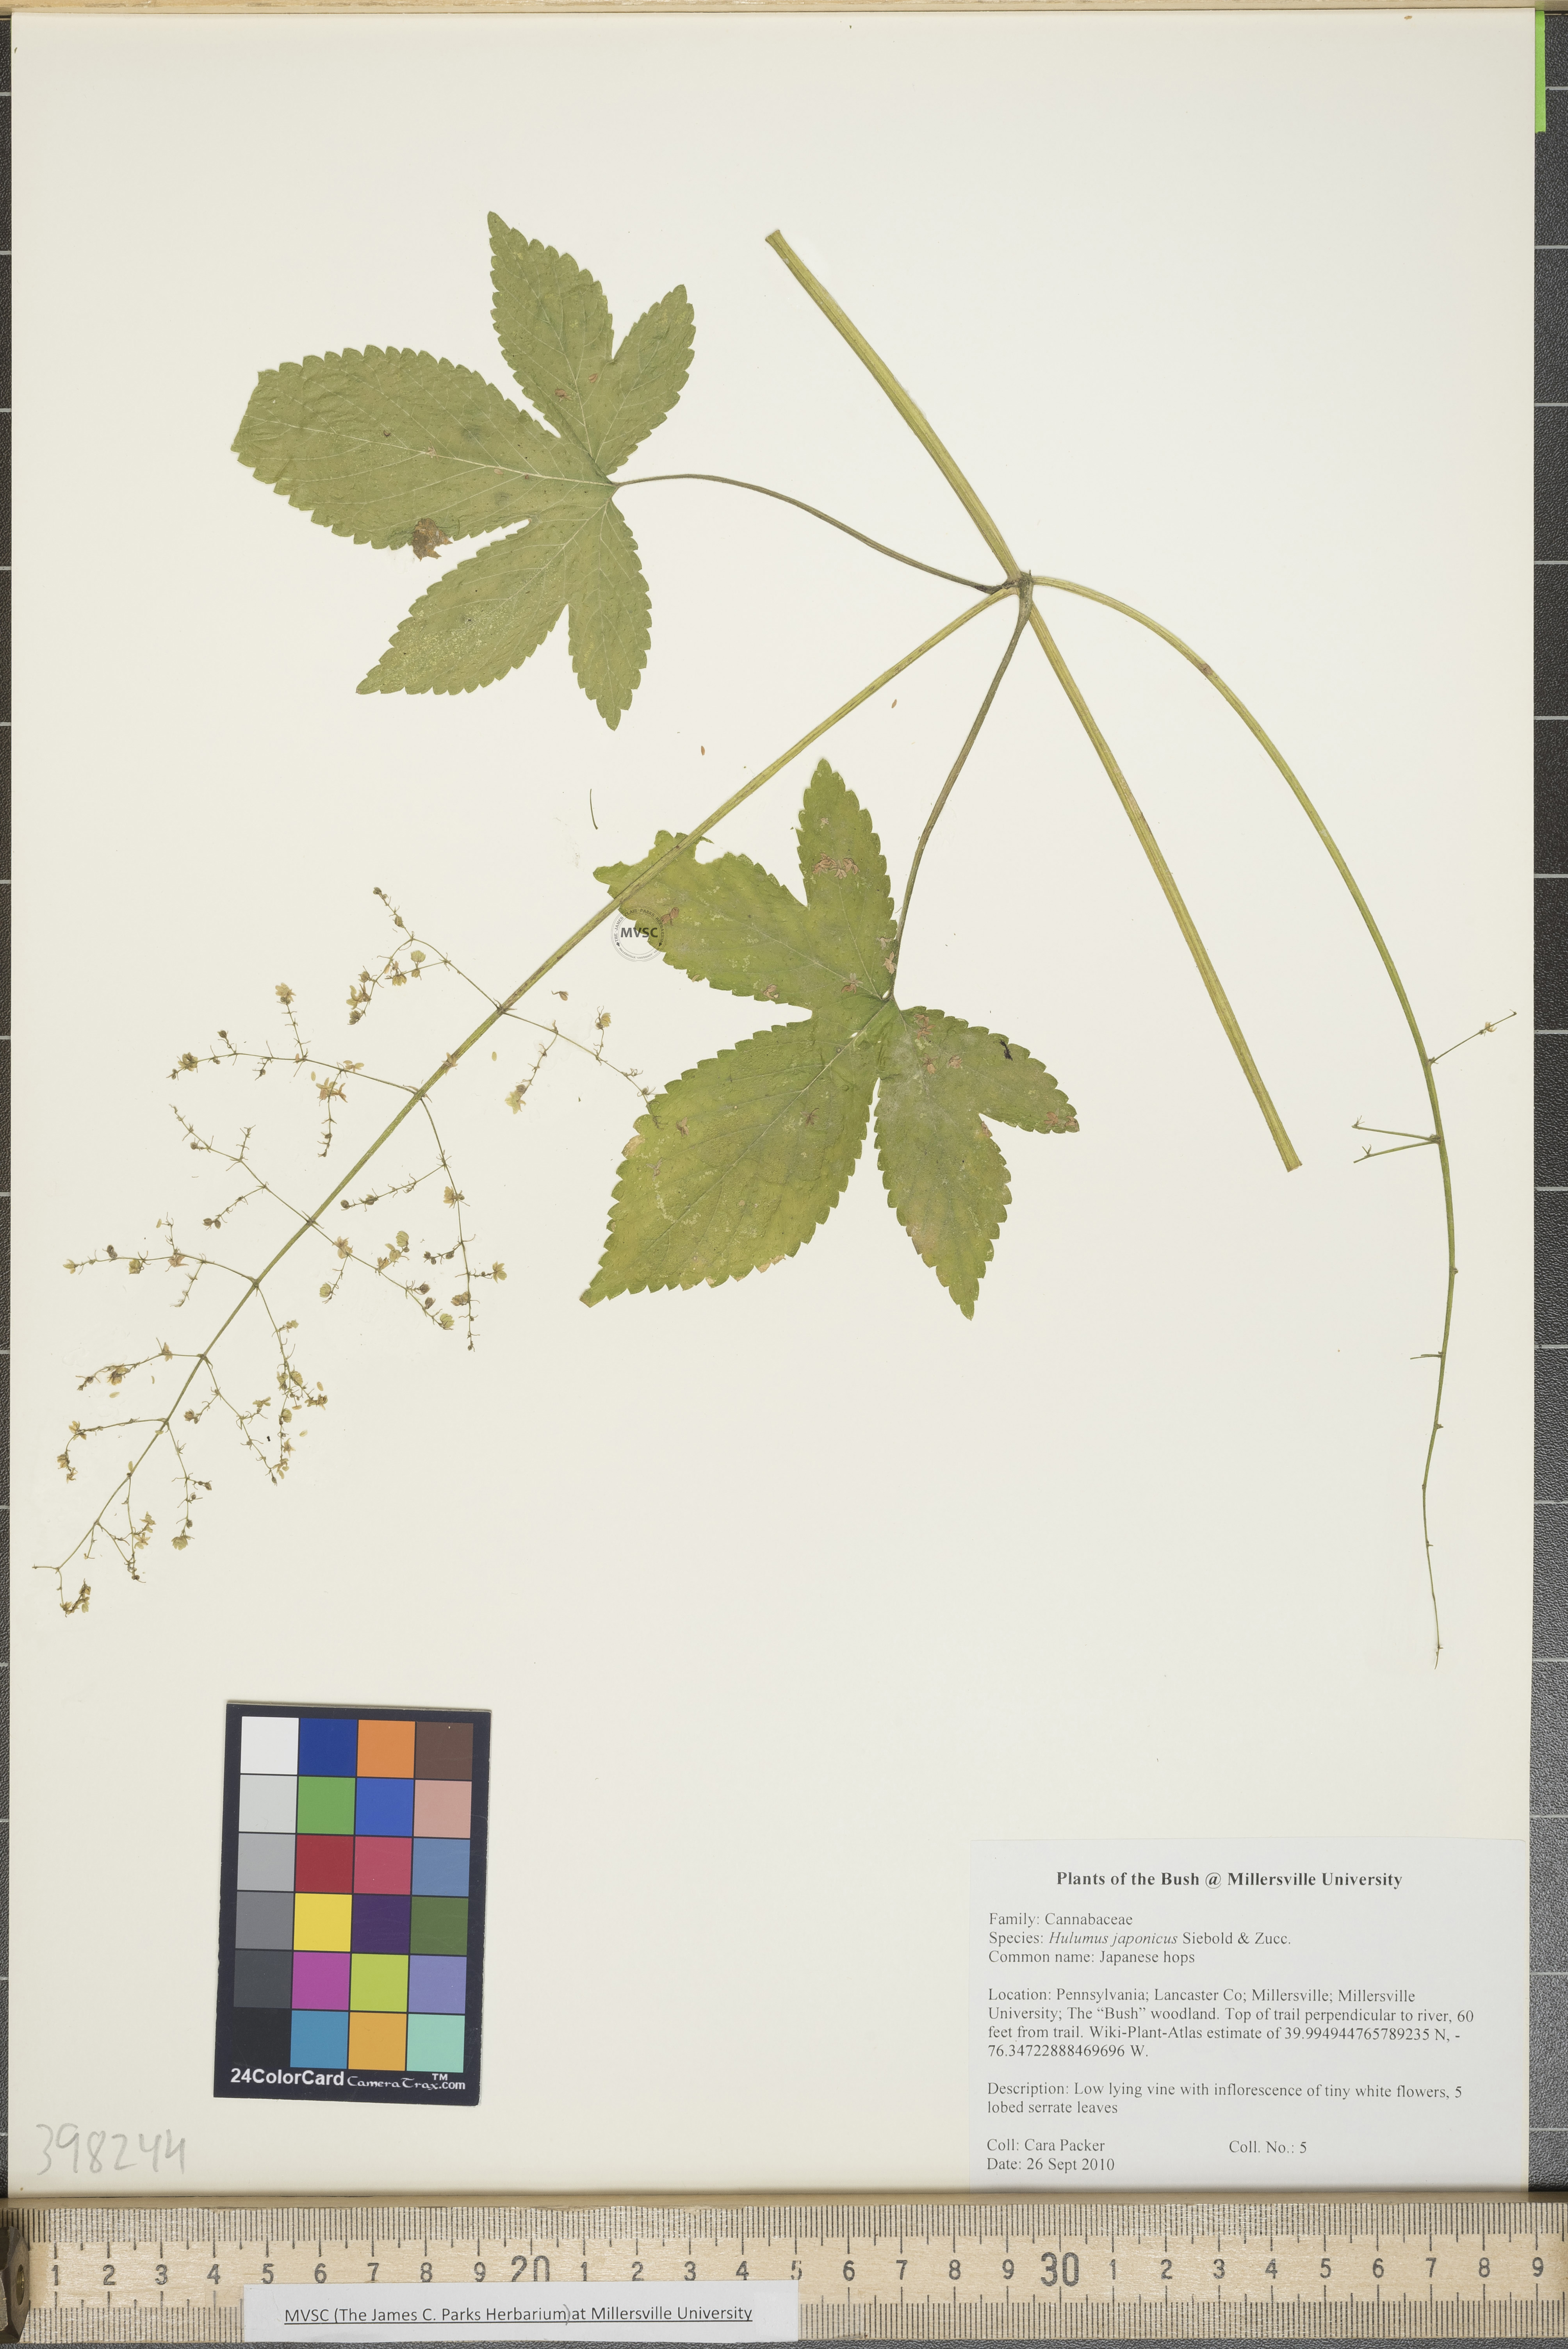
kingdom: Plantae
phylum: Tracheophyta
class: Magnoliopsida
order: Rosales
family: Cannabaceae
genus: Humulus
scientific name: Humulus scandens
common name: Japanese hops
